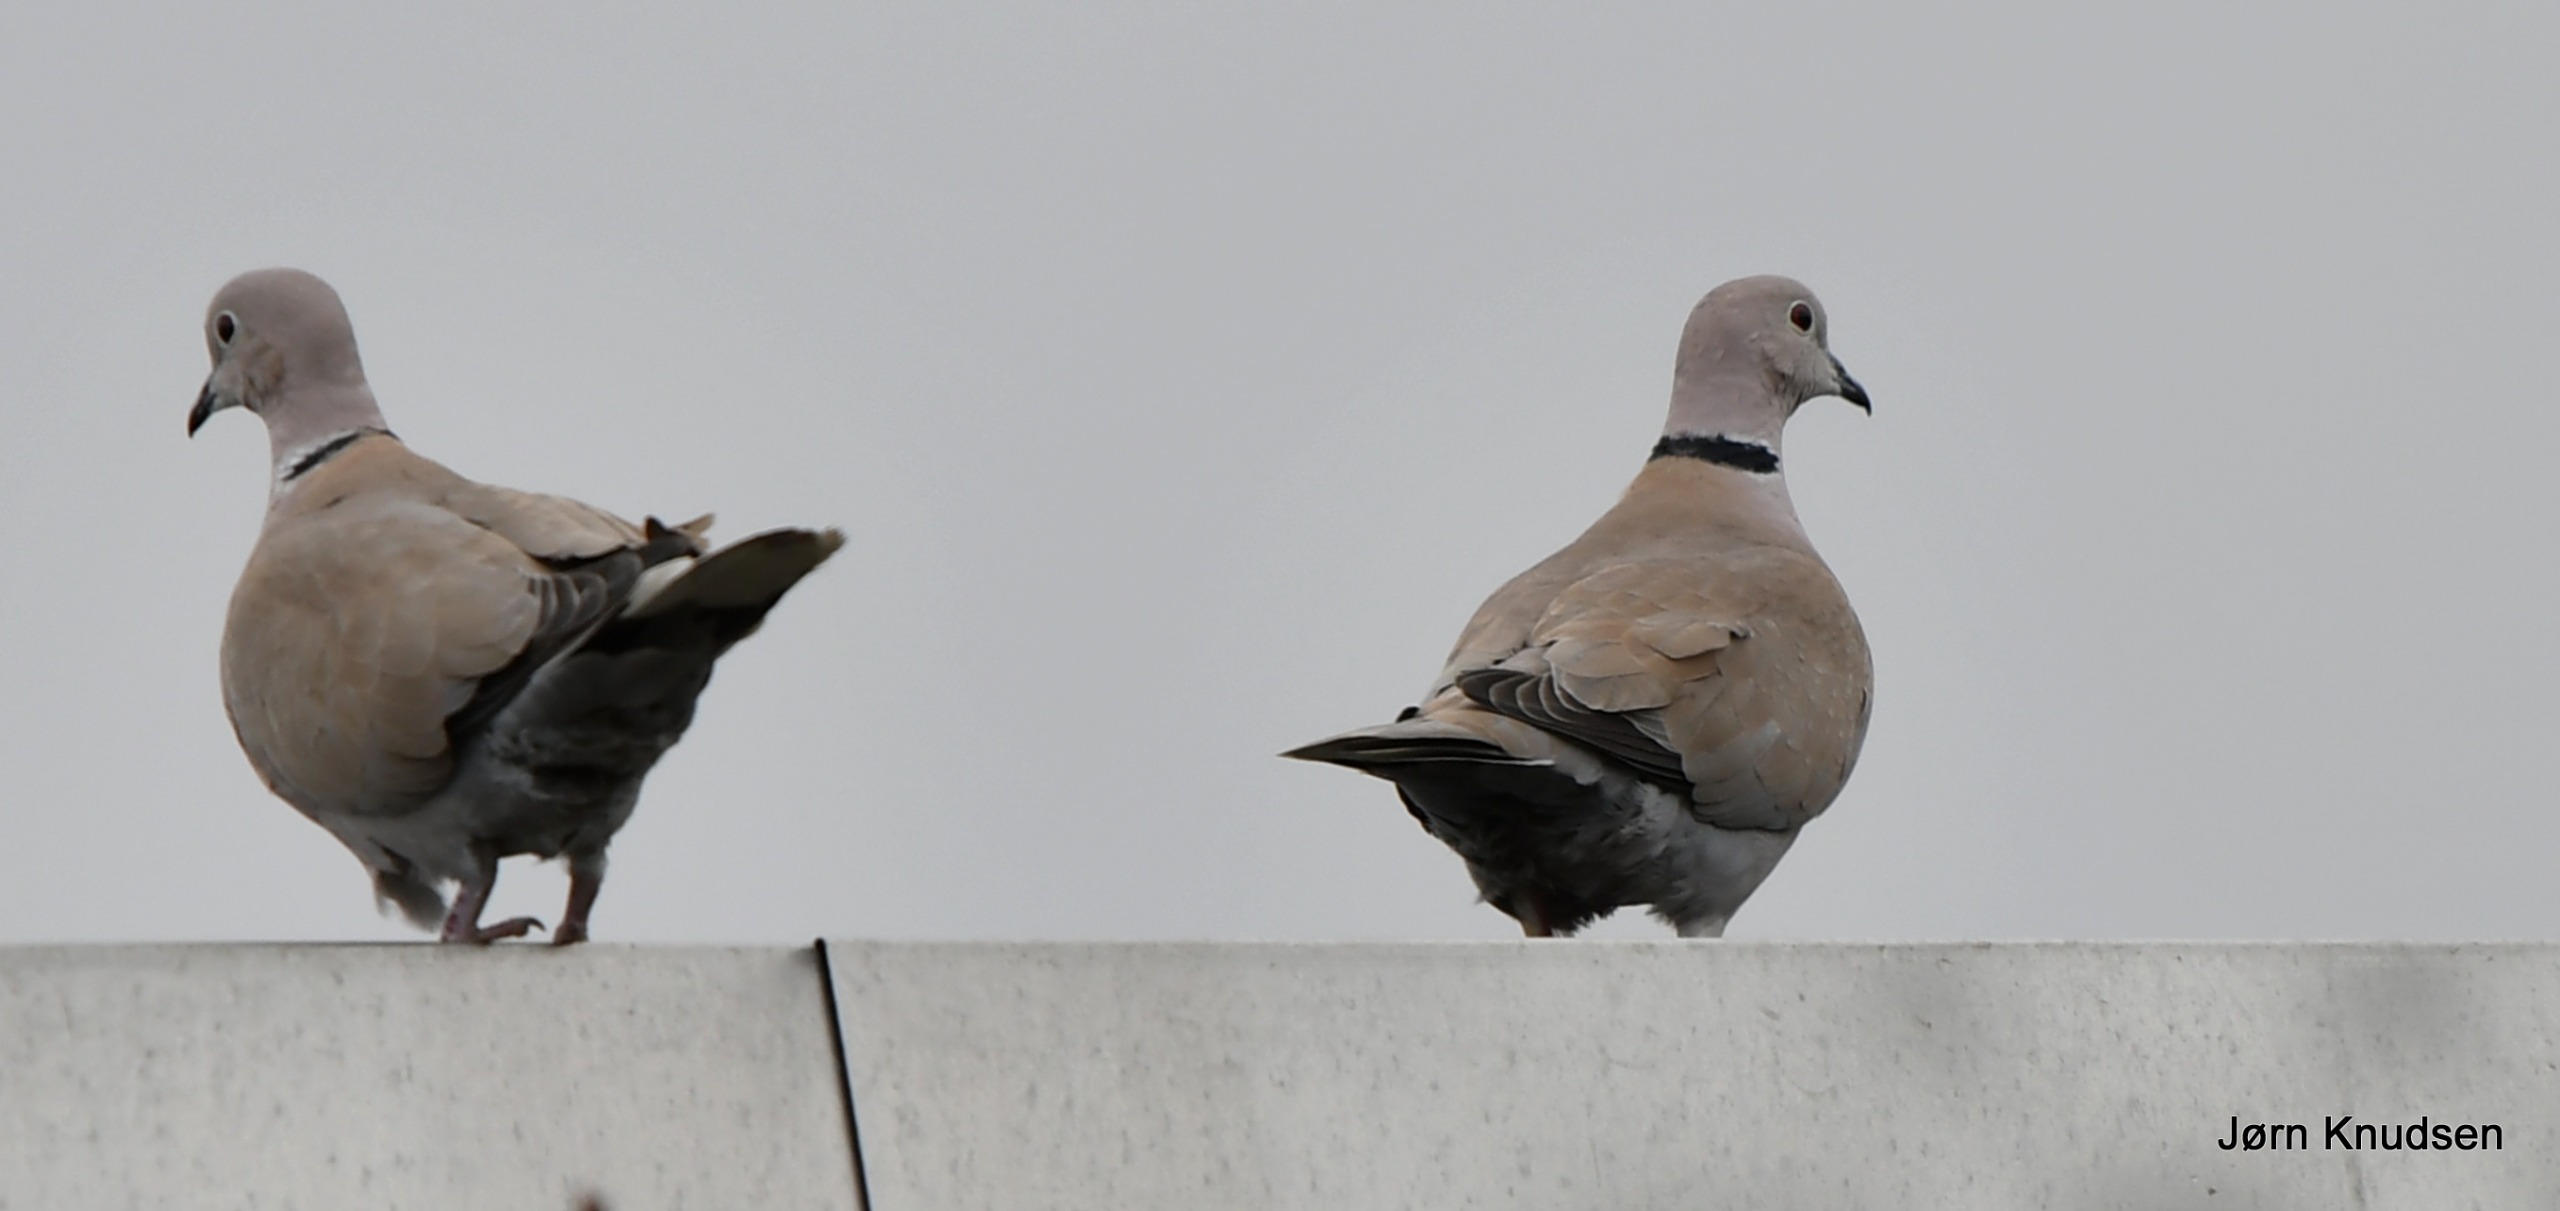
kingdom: Animalia
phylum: Chordata
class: Aves
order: Columbiformes
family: Columbidae
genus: Streptopelia
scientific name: Streptopelia decaocto
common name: Tyrkerdue
